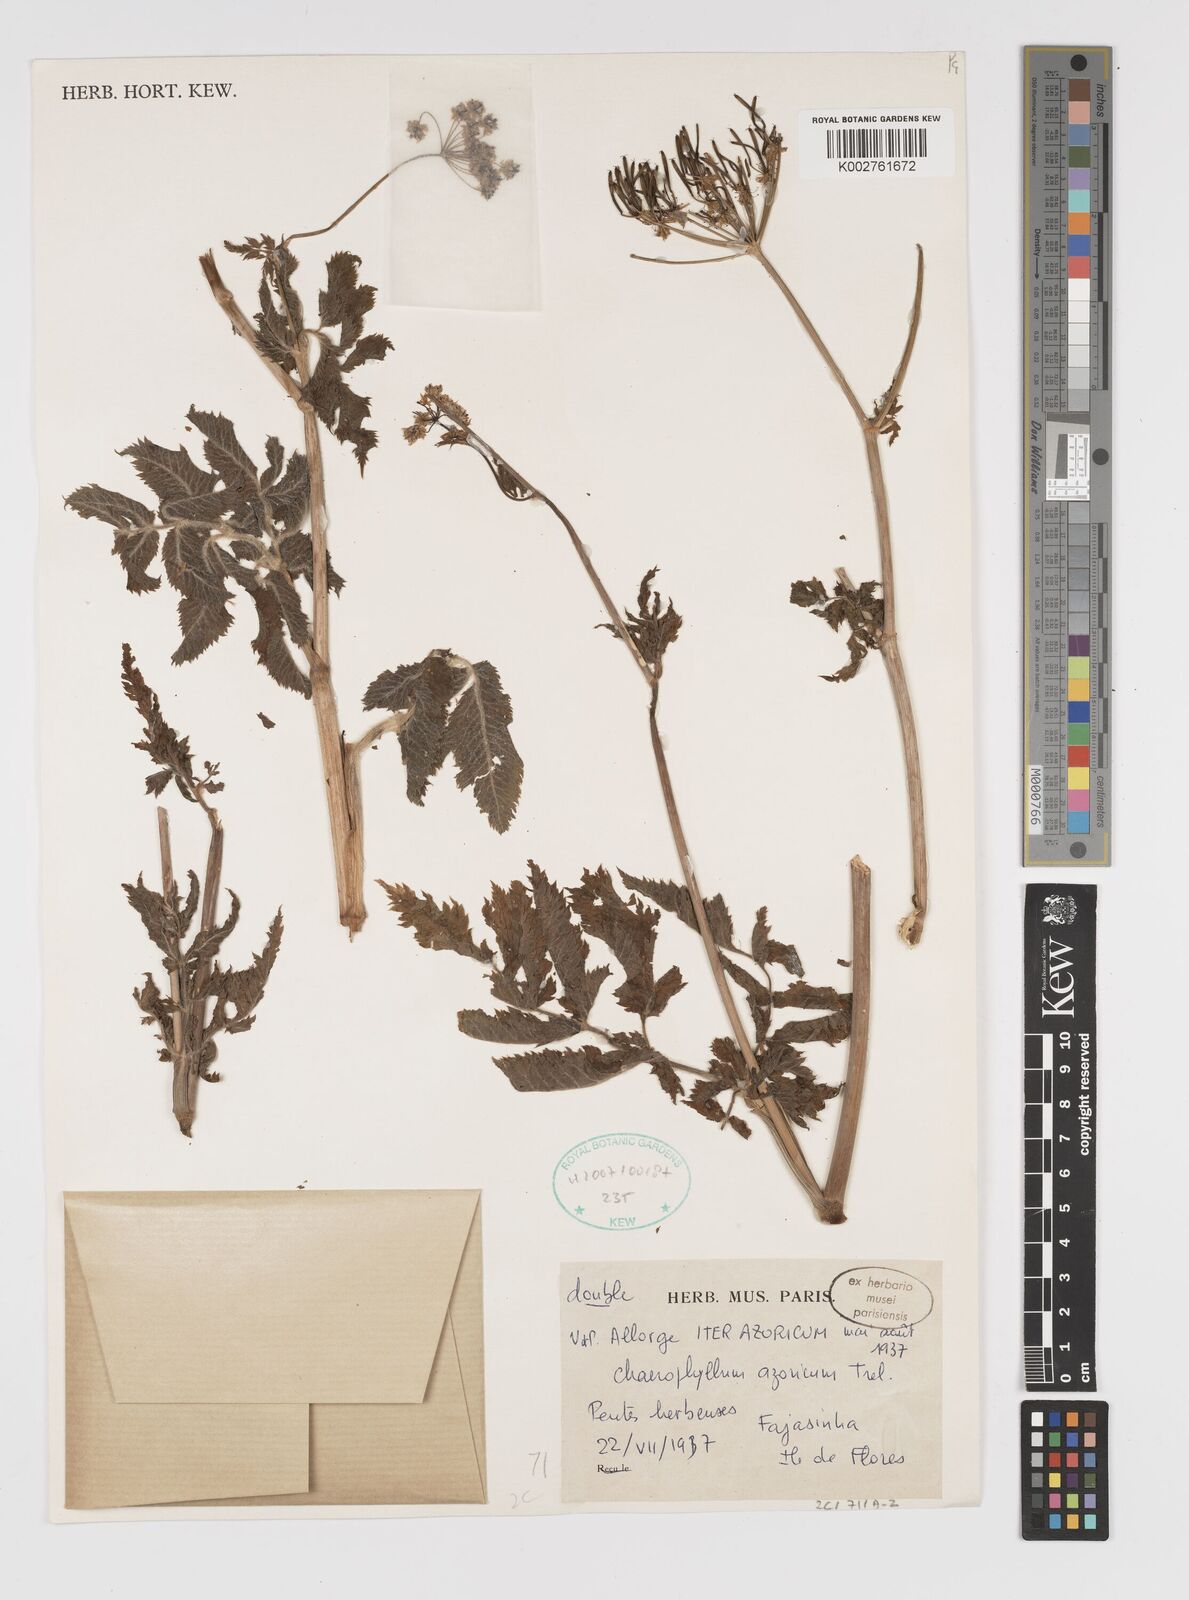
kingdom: Plantae
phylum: Tracheophyta
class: Magnoliopsida
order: Apiales
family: Apiaceae
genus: Chaerophyllum
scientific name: Chaerophyllum
